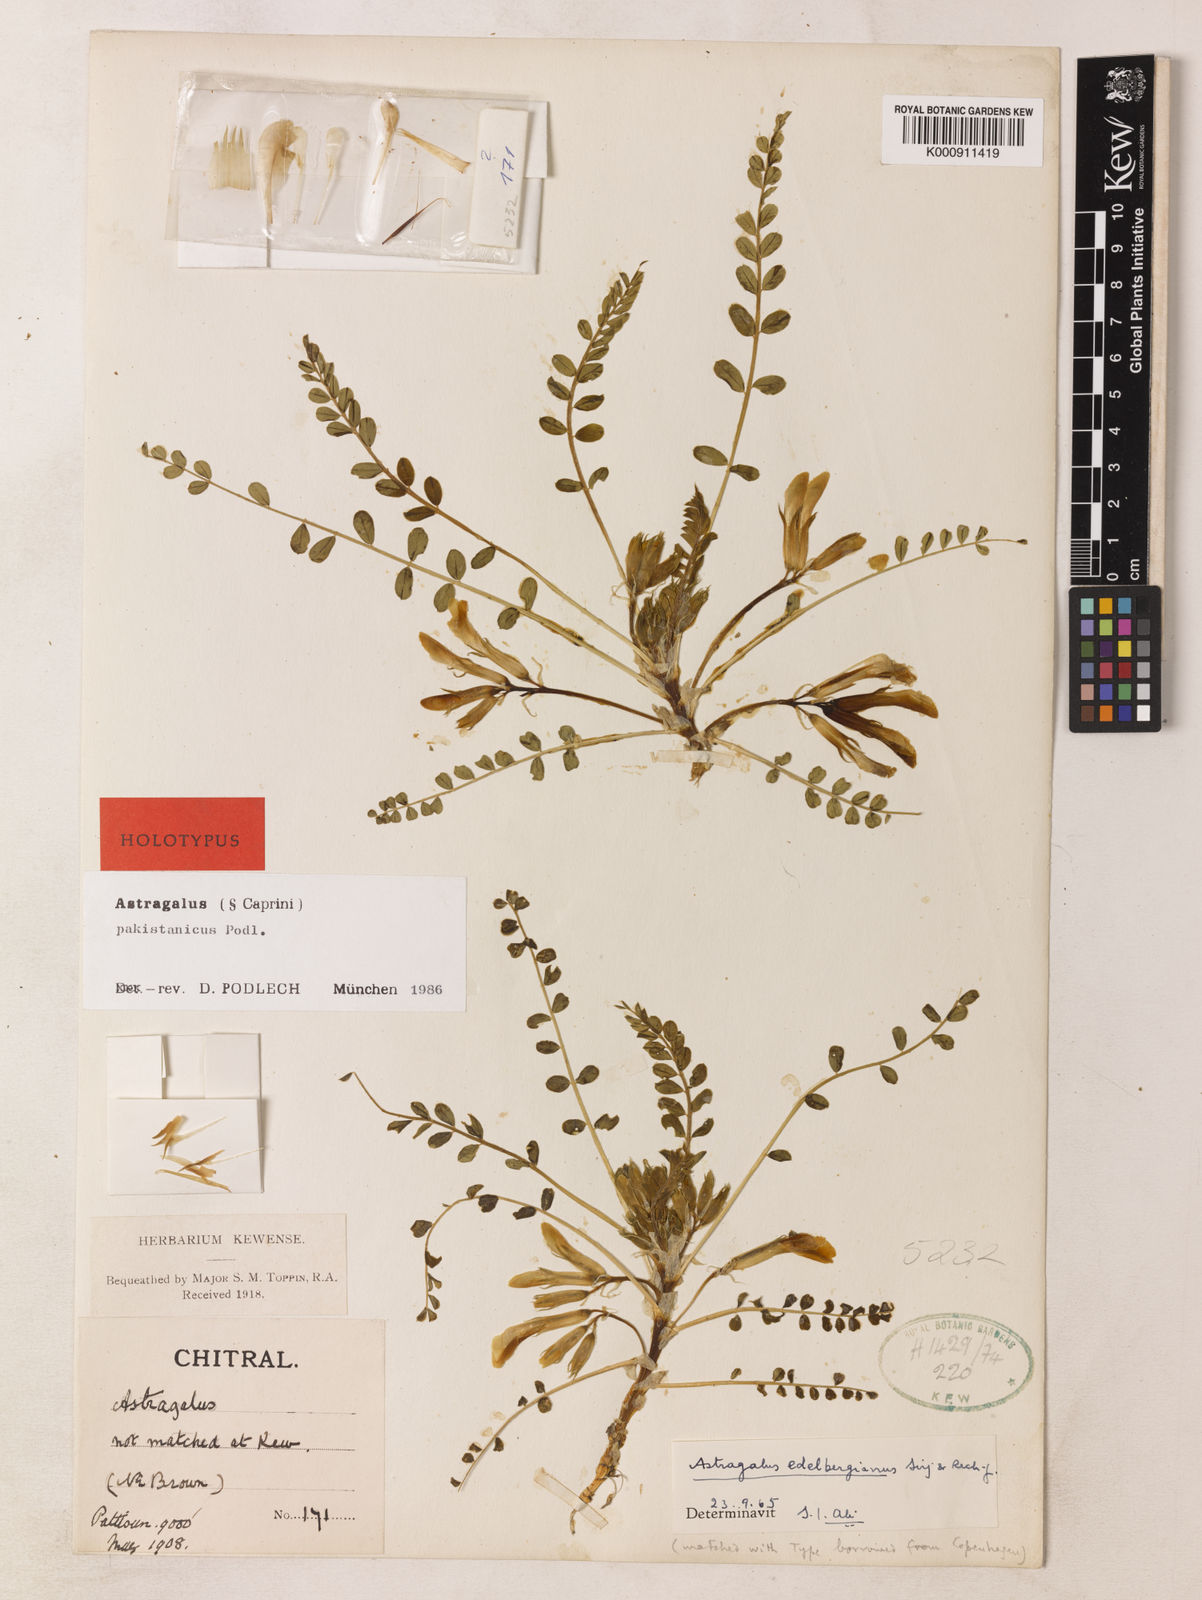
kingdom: Plantae
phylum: Tracheophyta
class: Magnoliopsida
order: Fabales
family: Fabaceae
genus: Astragalus
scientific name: Astragalus pakistanicus
